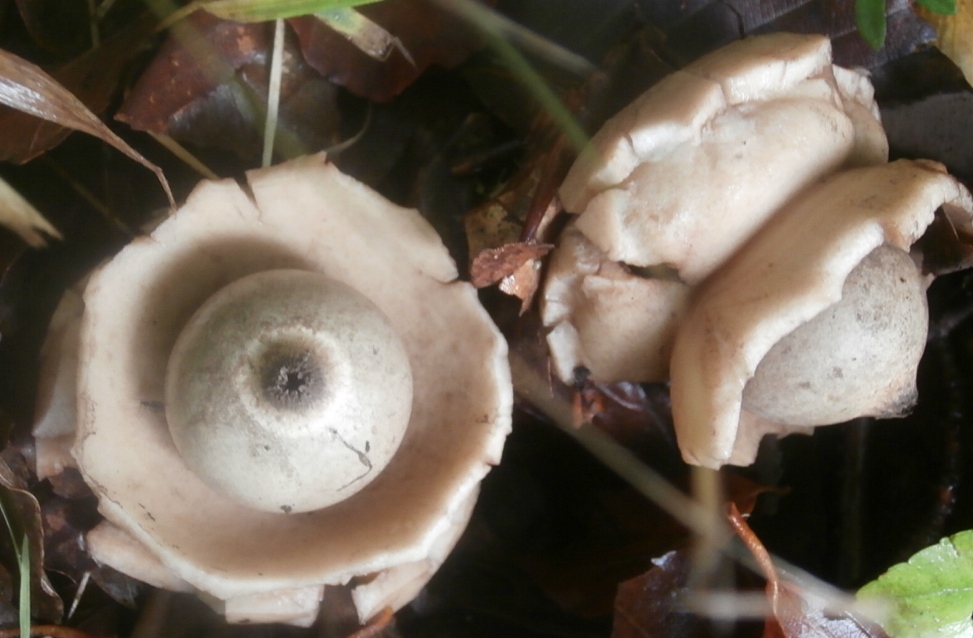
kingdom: Fungi
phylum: Basidiomycota
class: Agaricomycetes
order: Geastrales
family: Geastraceae
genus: Geastrum
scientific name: Geastrum michelianum
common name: kødet stjernebold
